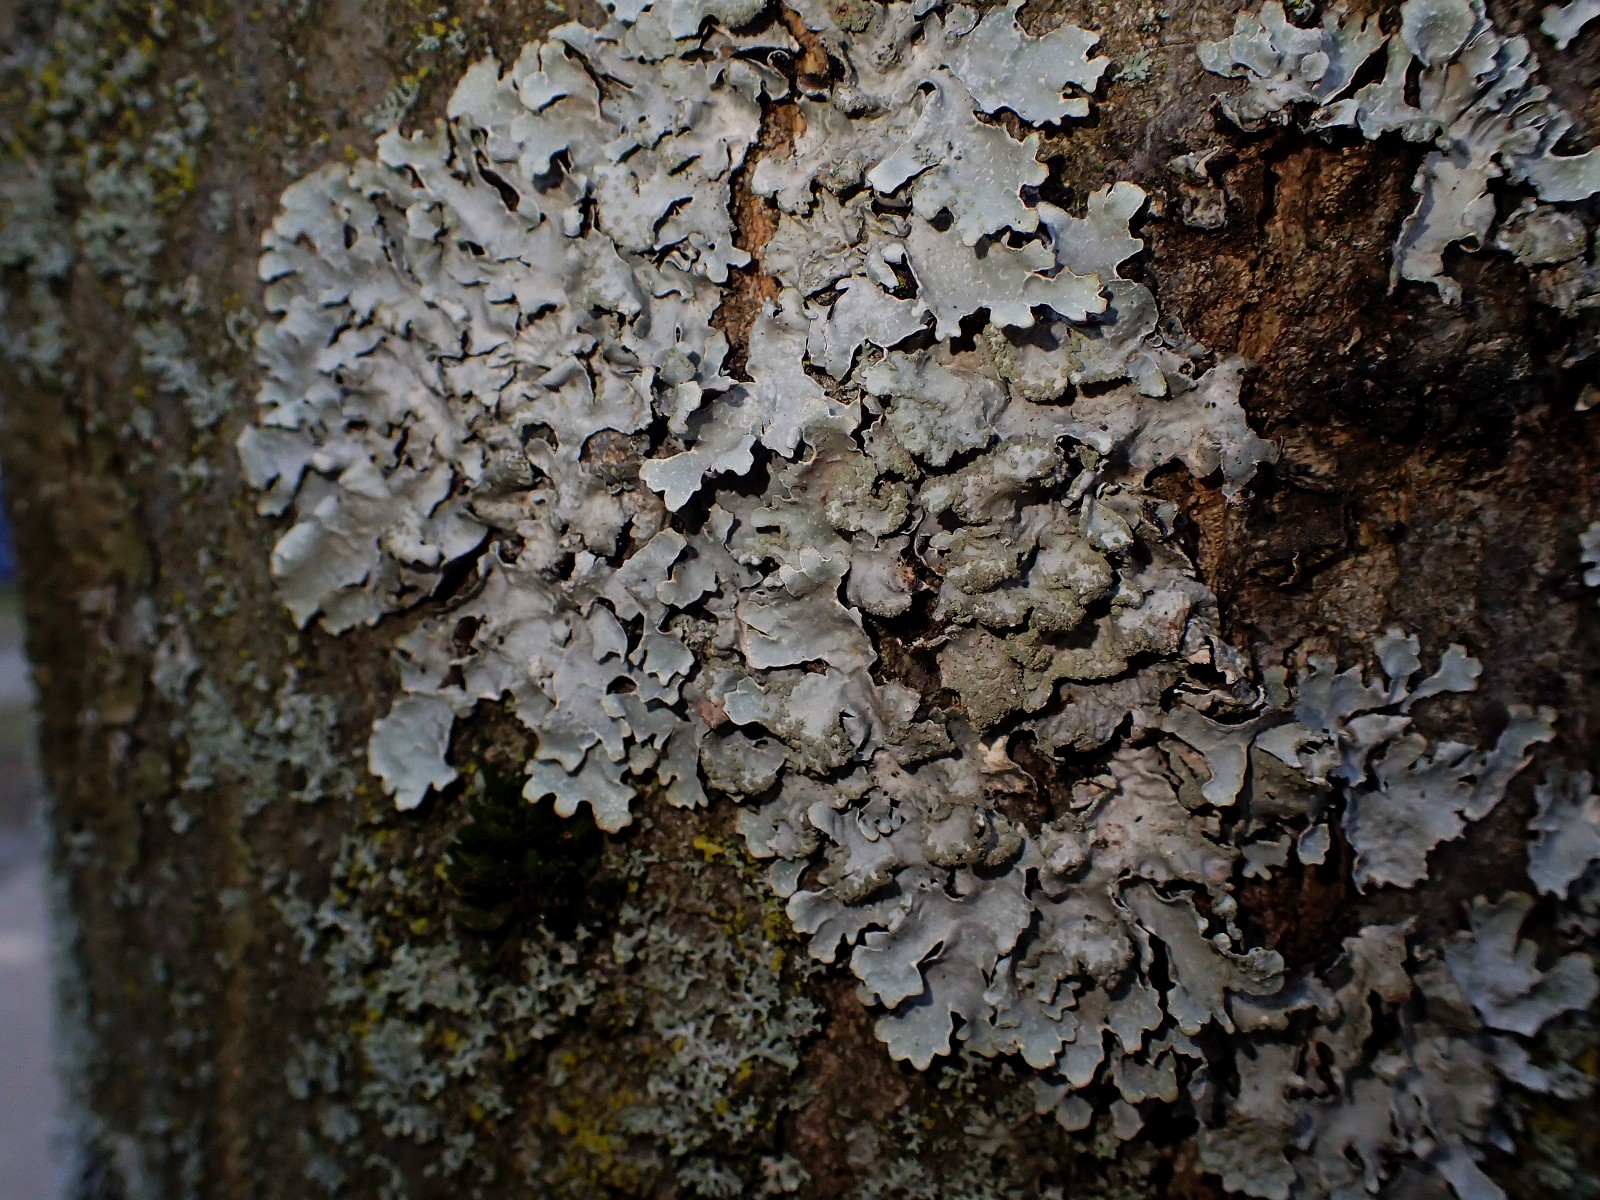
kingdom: Fungi
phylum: Ascomycota
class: Lecanoromycetes
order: Lecanorales
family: Parmeliaceae
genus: Parmelia
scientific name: Parmelia sulcata
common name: rynket skållav
